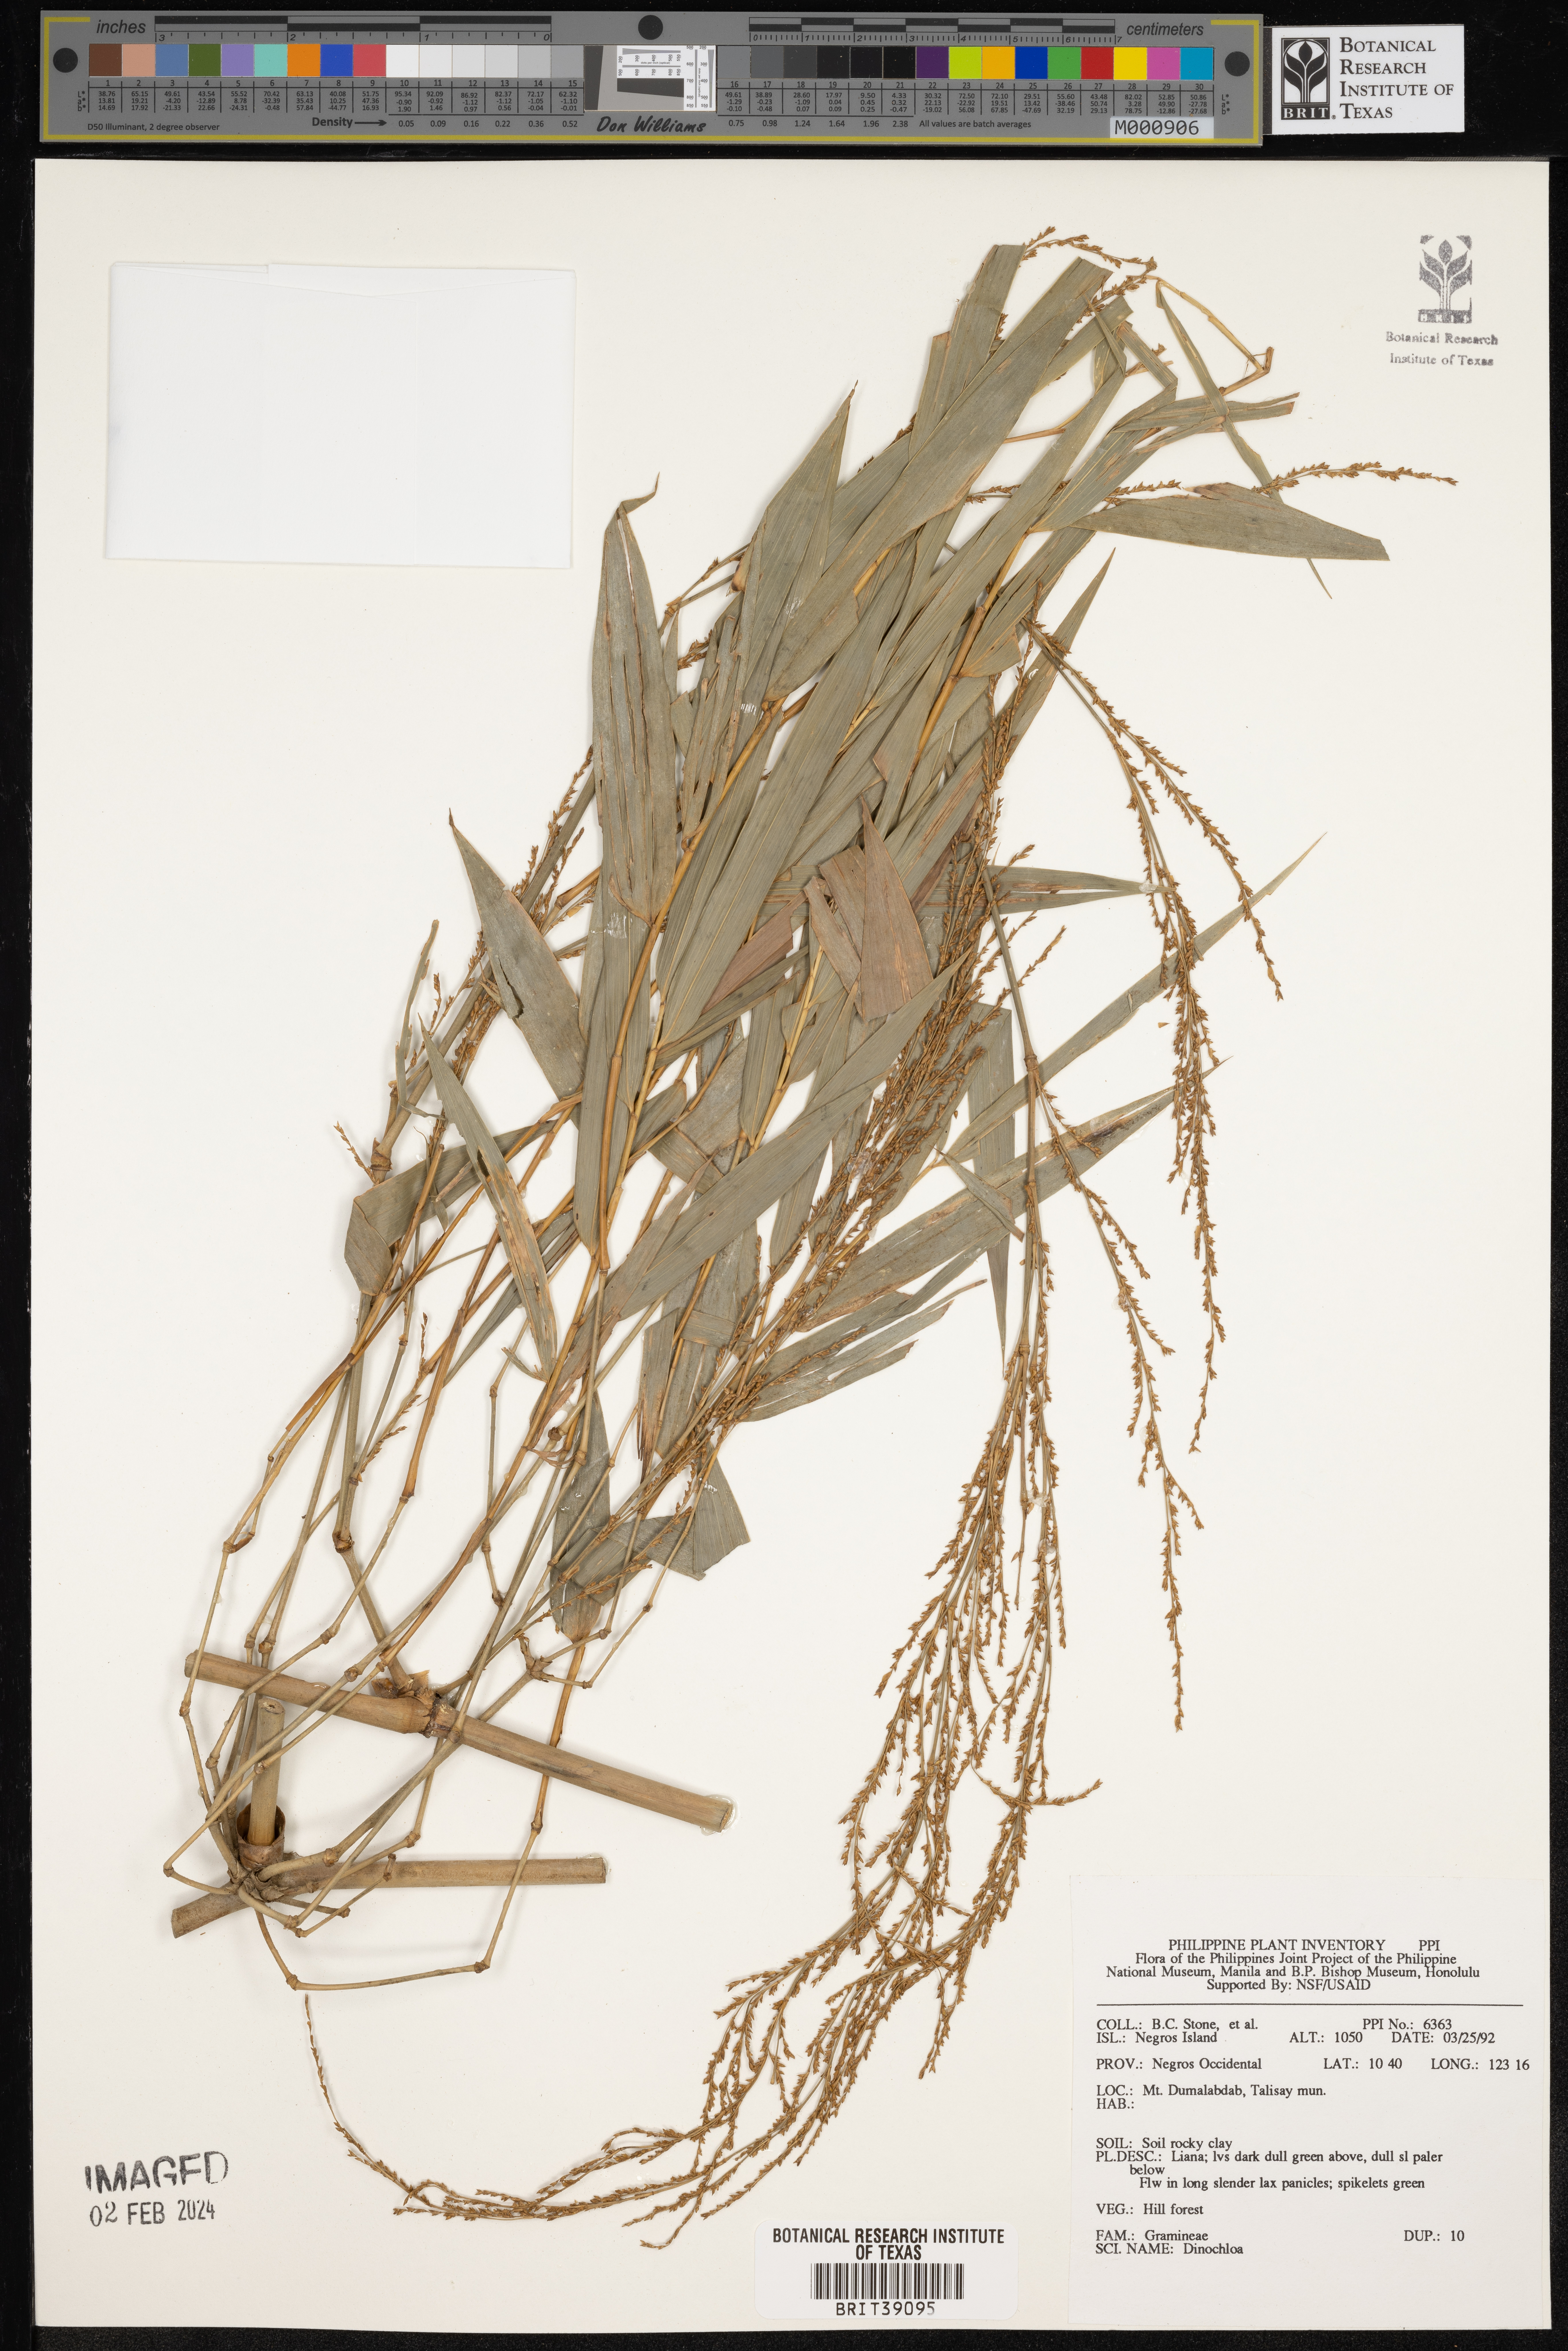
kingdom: Plantae
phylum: Tracheophyta
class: Liliopsida
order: Poales
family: Poaceae
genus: Dinochloa
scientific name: Dinochloa
